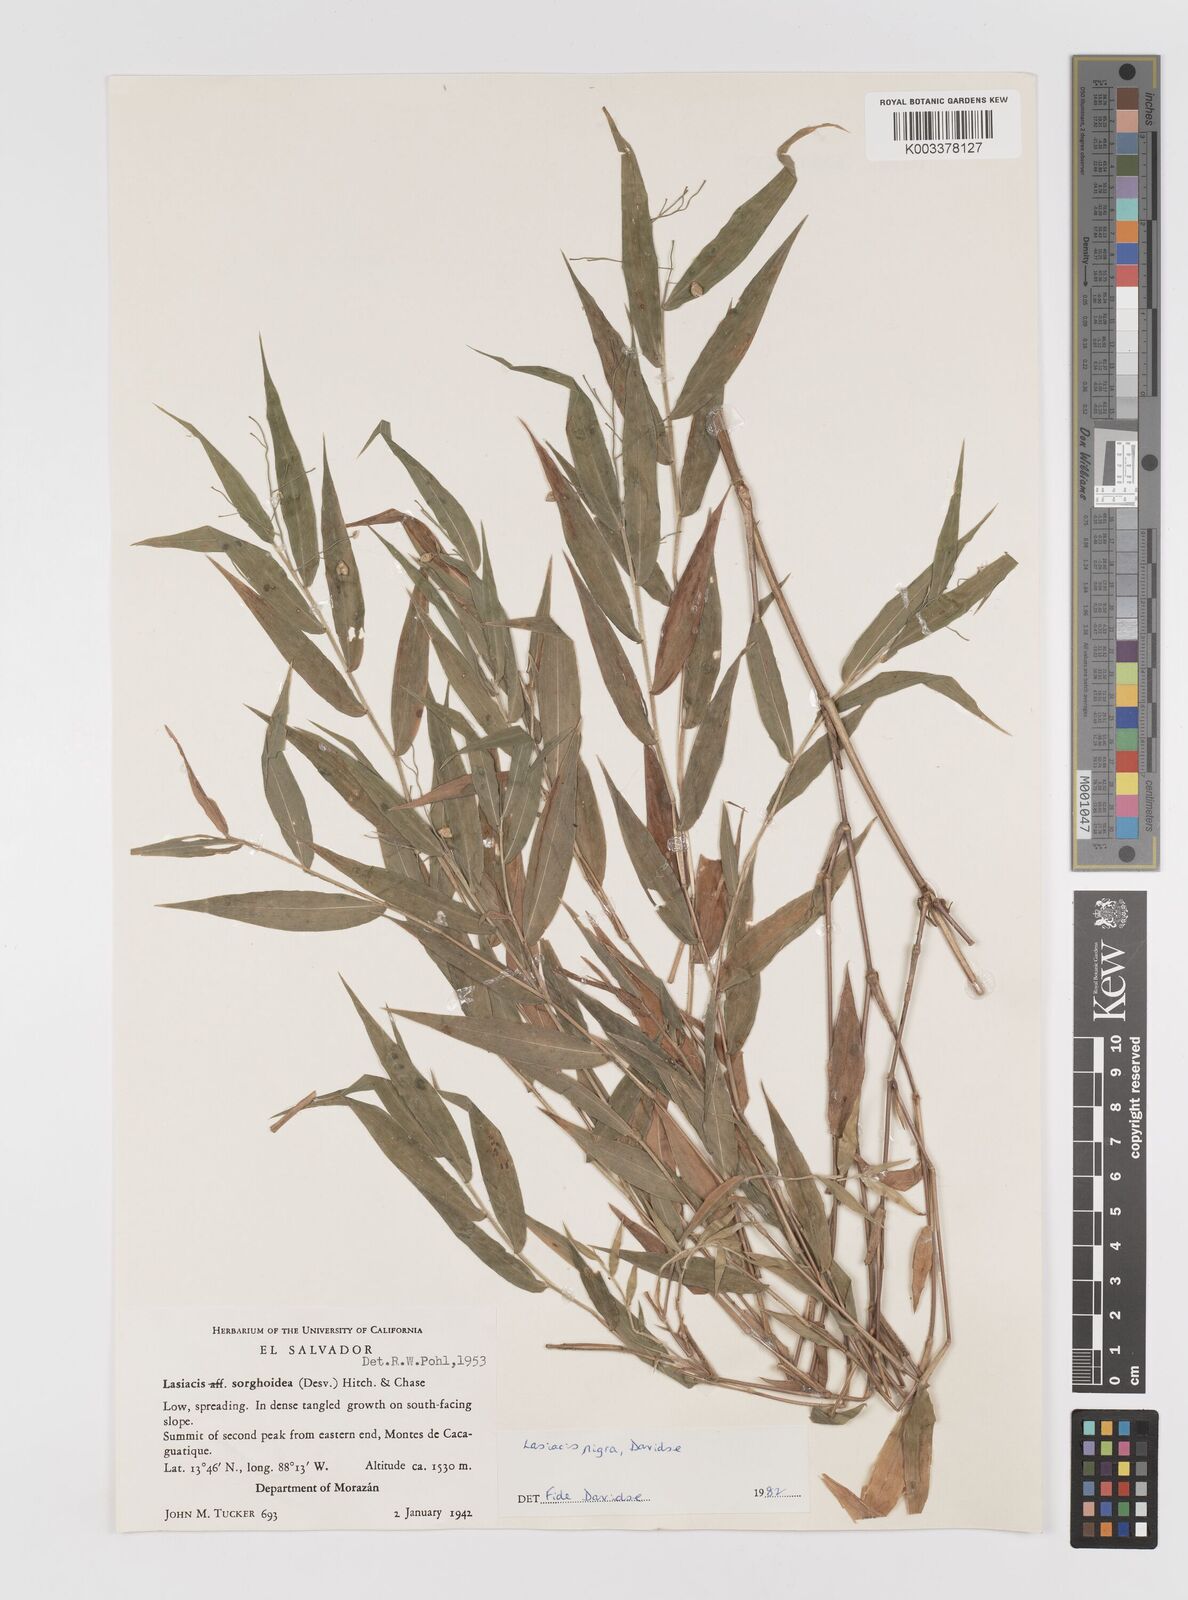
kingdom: Plantae
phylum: Tracheophyta
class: Liliopsida
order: Poales
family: Poaceae
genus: Lasiacis
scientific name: Lasiacis nigra
